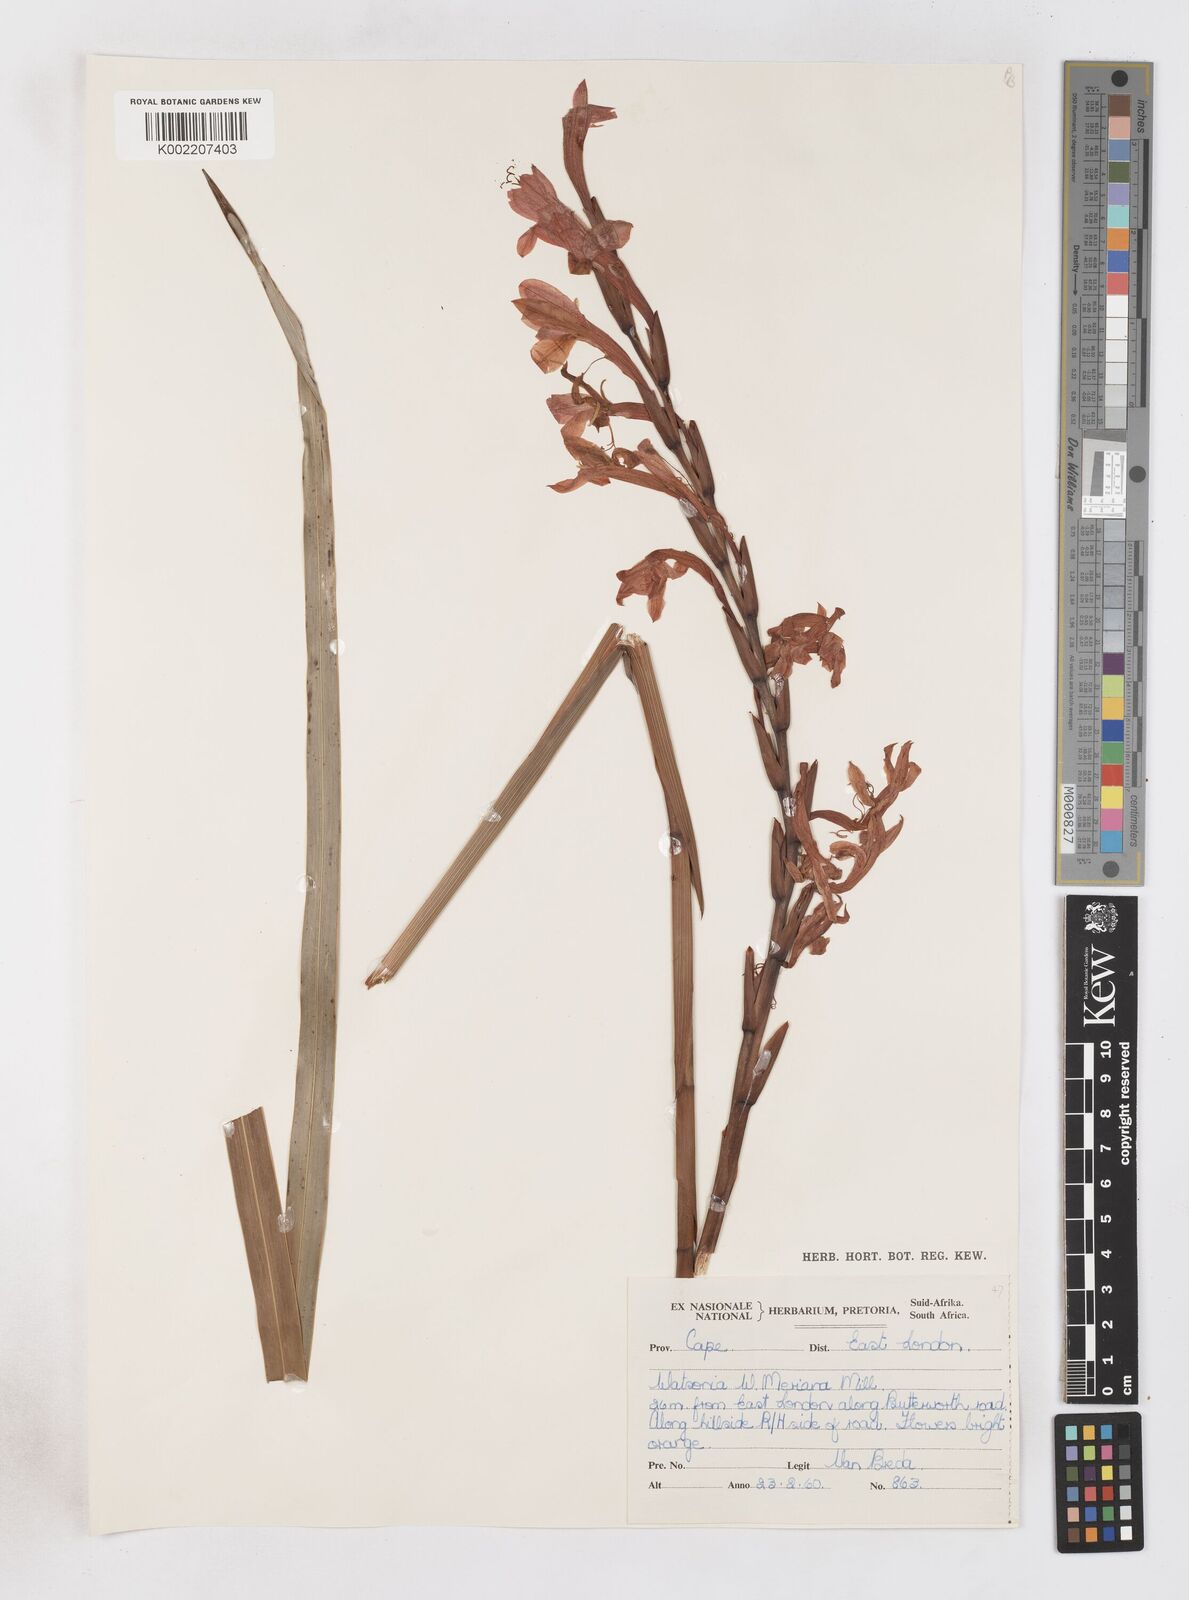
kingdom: Plantae
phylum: Tracheophyta
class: Liliopsida
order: Asparagales
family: Iridaceae
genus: Watsonia
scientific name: Watsonia pillansii
